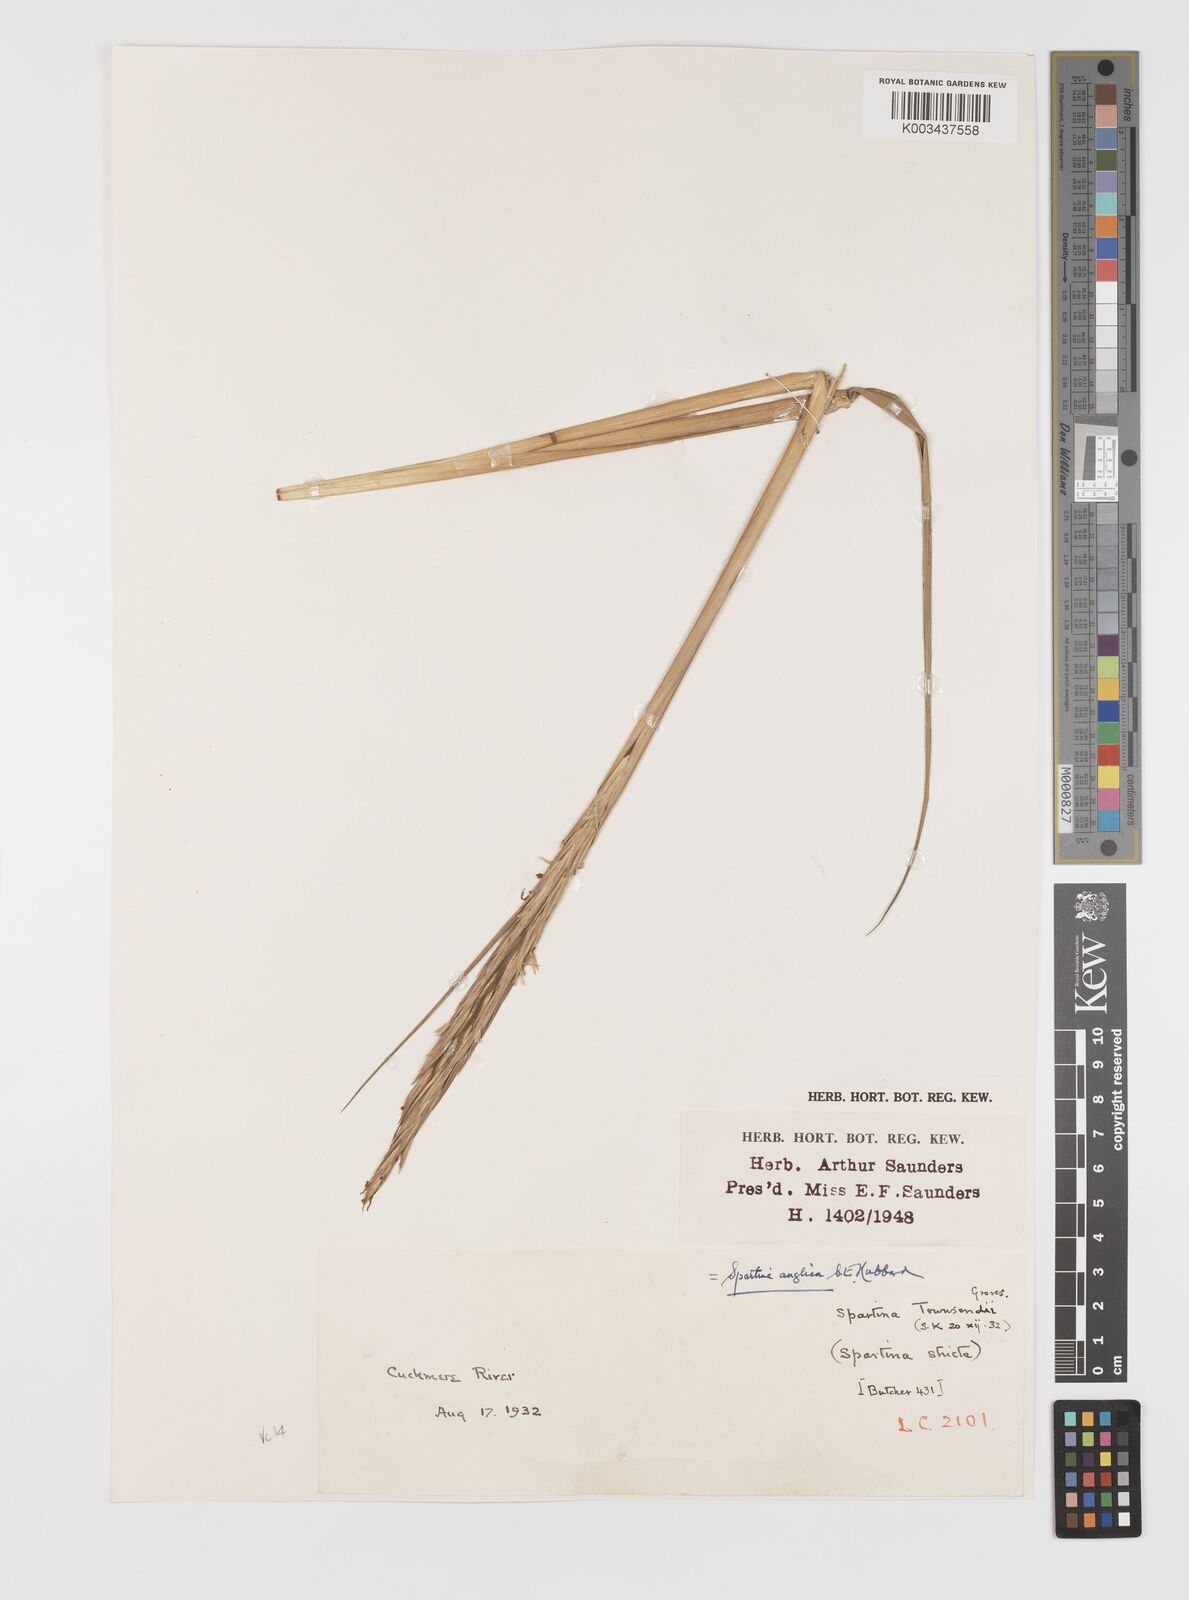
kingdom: Plantae
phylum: Tracheophyta
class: Liliopsida
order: Poales
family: Poaceae
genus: Sporobolus
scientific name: Sporobolus anglicus
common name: English cordgrass
